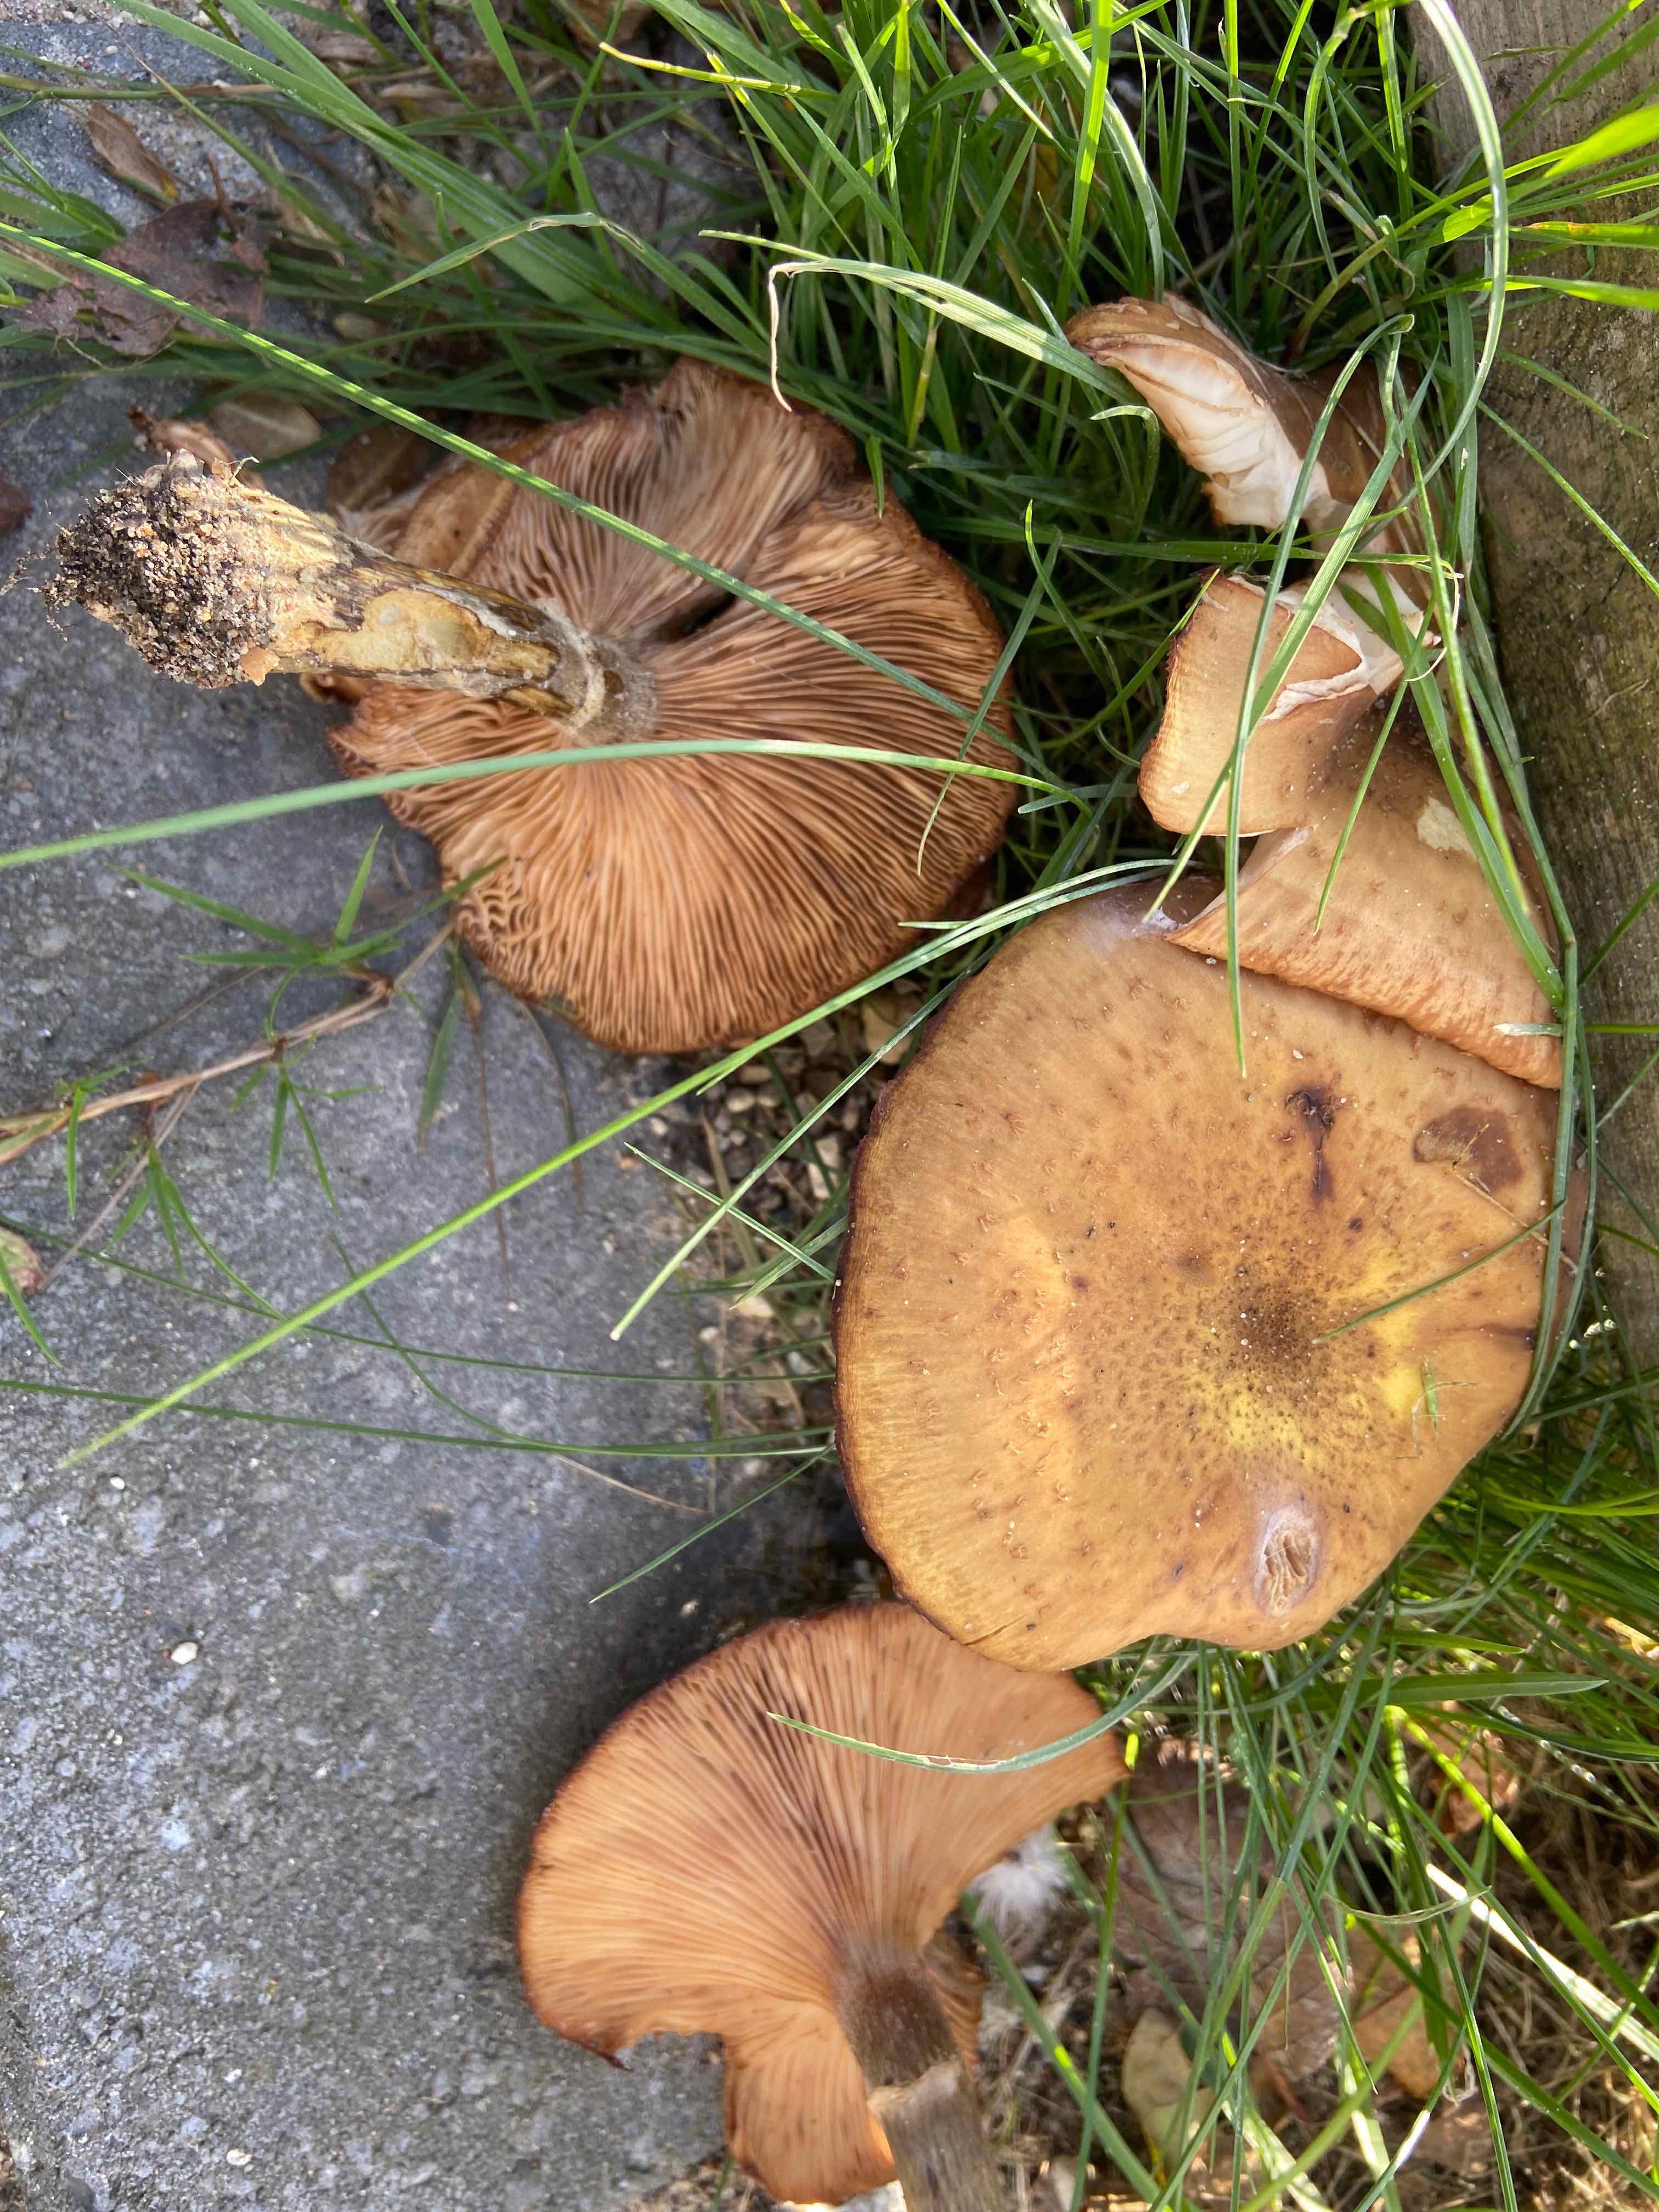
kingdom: Fungi
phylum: Basidiomycota
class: Agaricomycetes
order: Agaricales
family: Physalacriaceae
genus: Armillaria
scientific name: Armillaria lutea
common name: køllestokket honningsvamp
